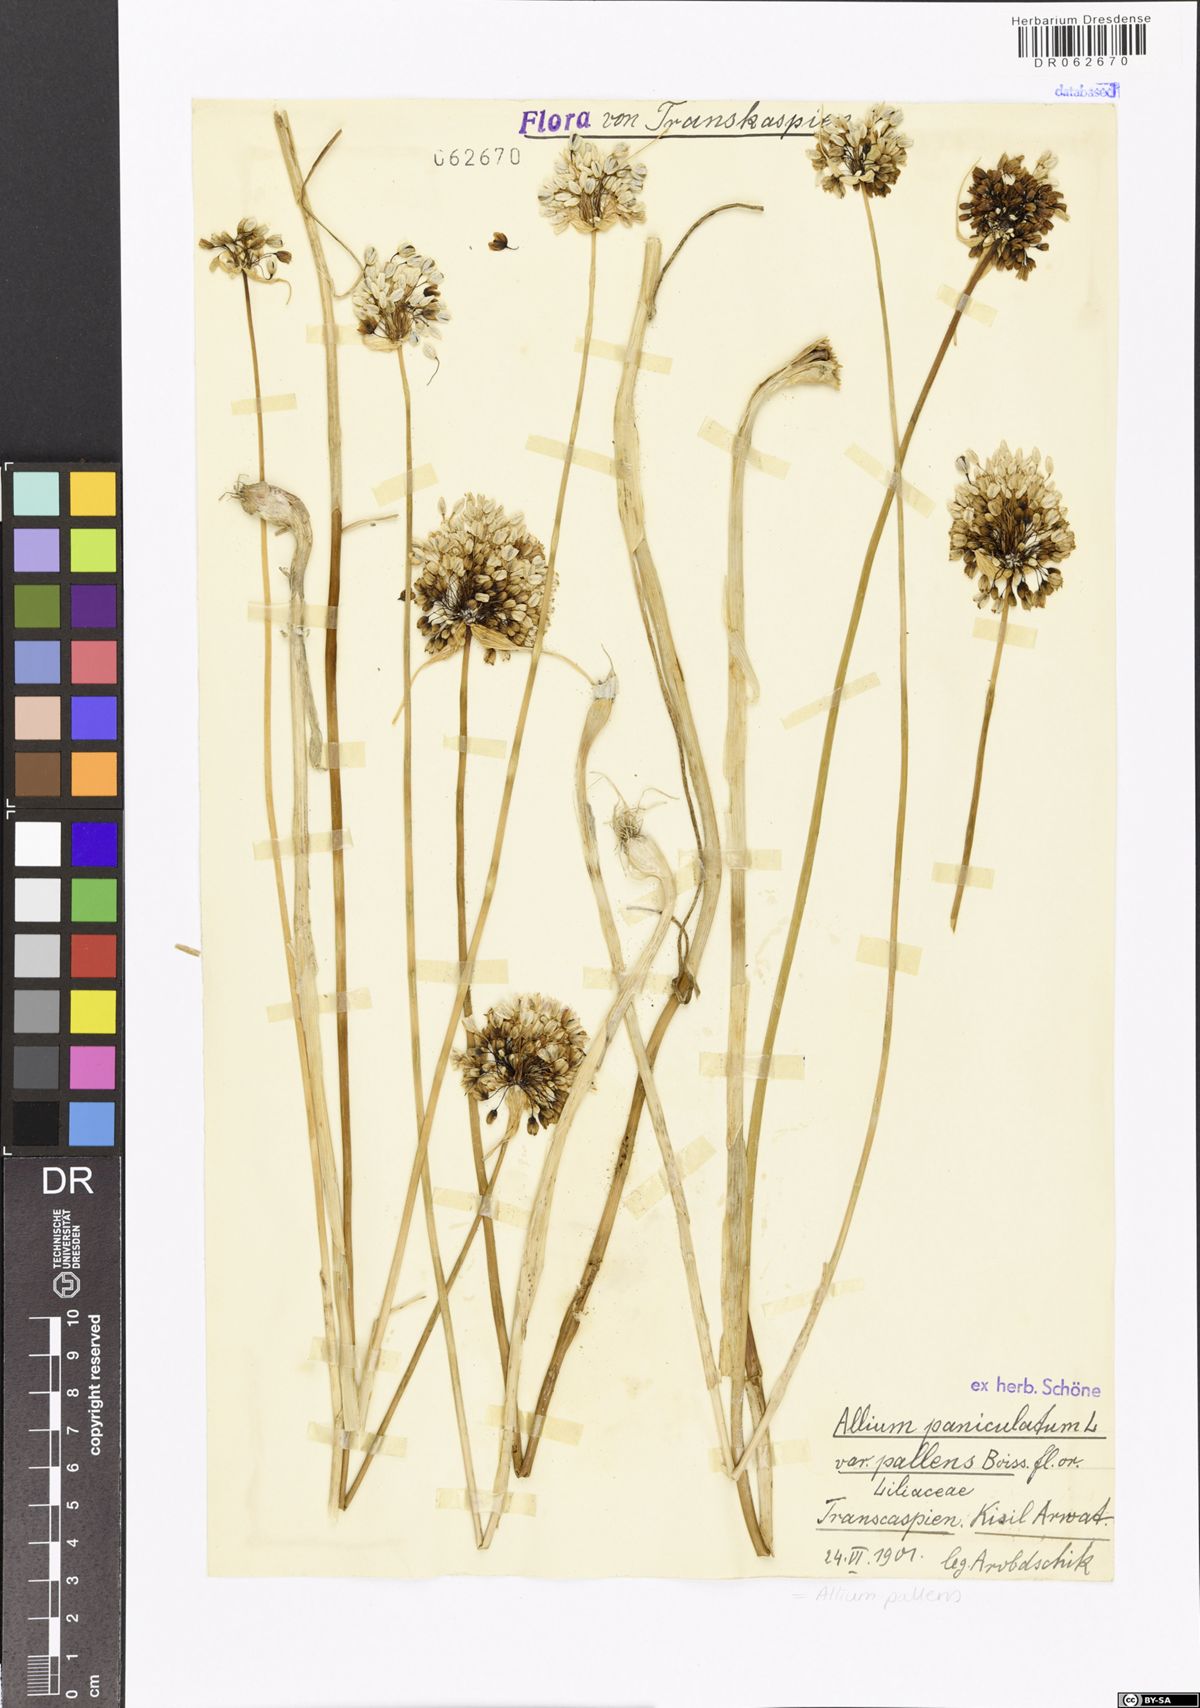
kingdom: Plantae
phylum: Tracheophyta
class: Liliopsida
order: Asparagales
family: Amaryllidaceae
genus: Allium
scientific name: Allium pallens
